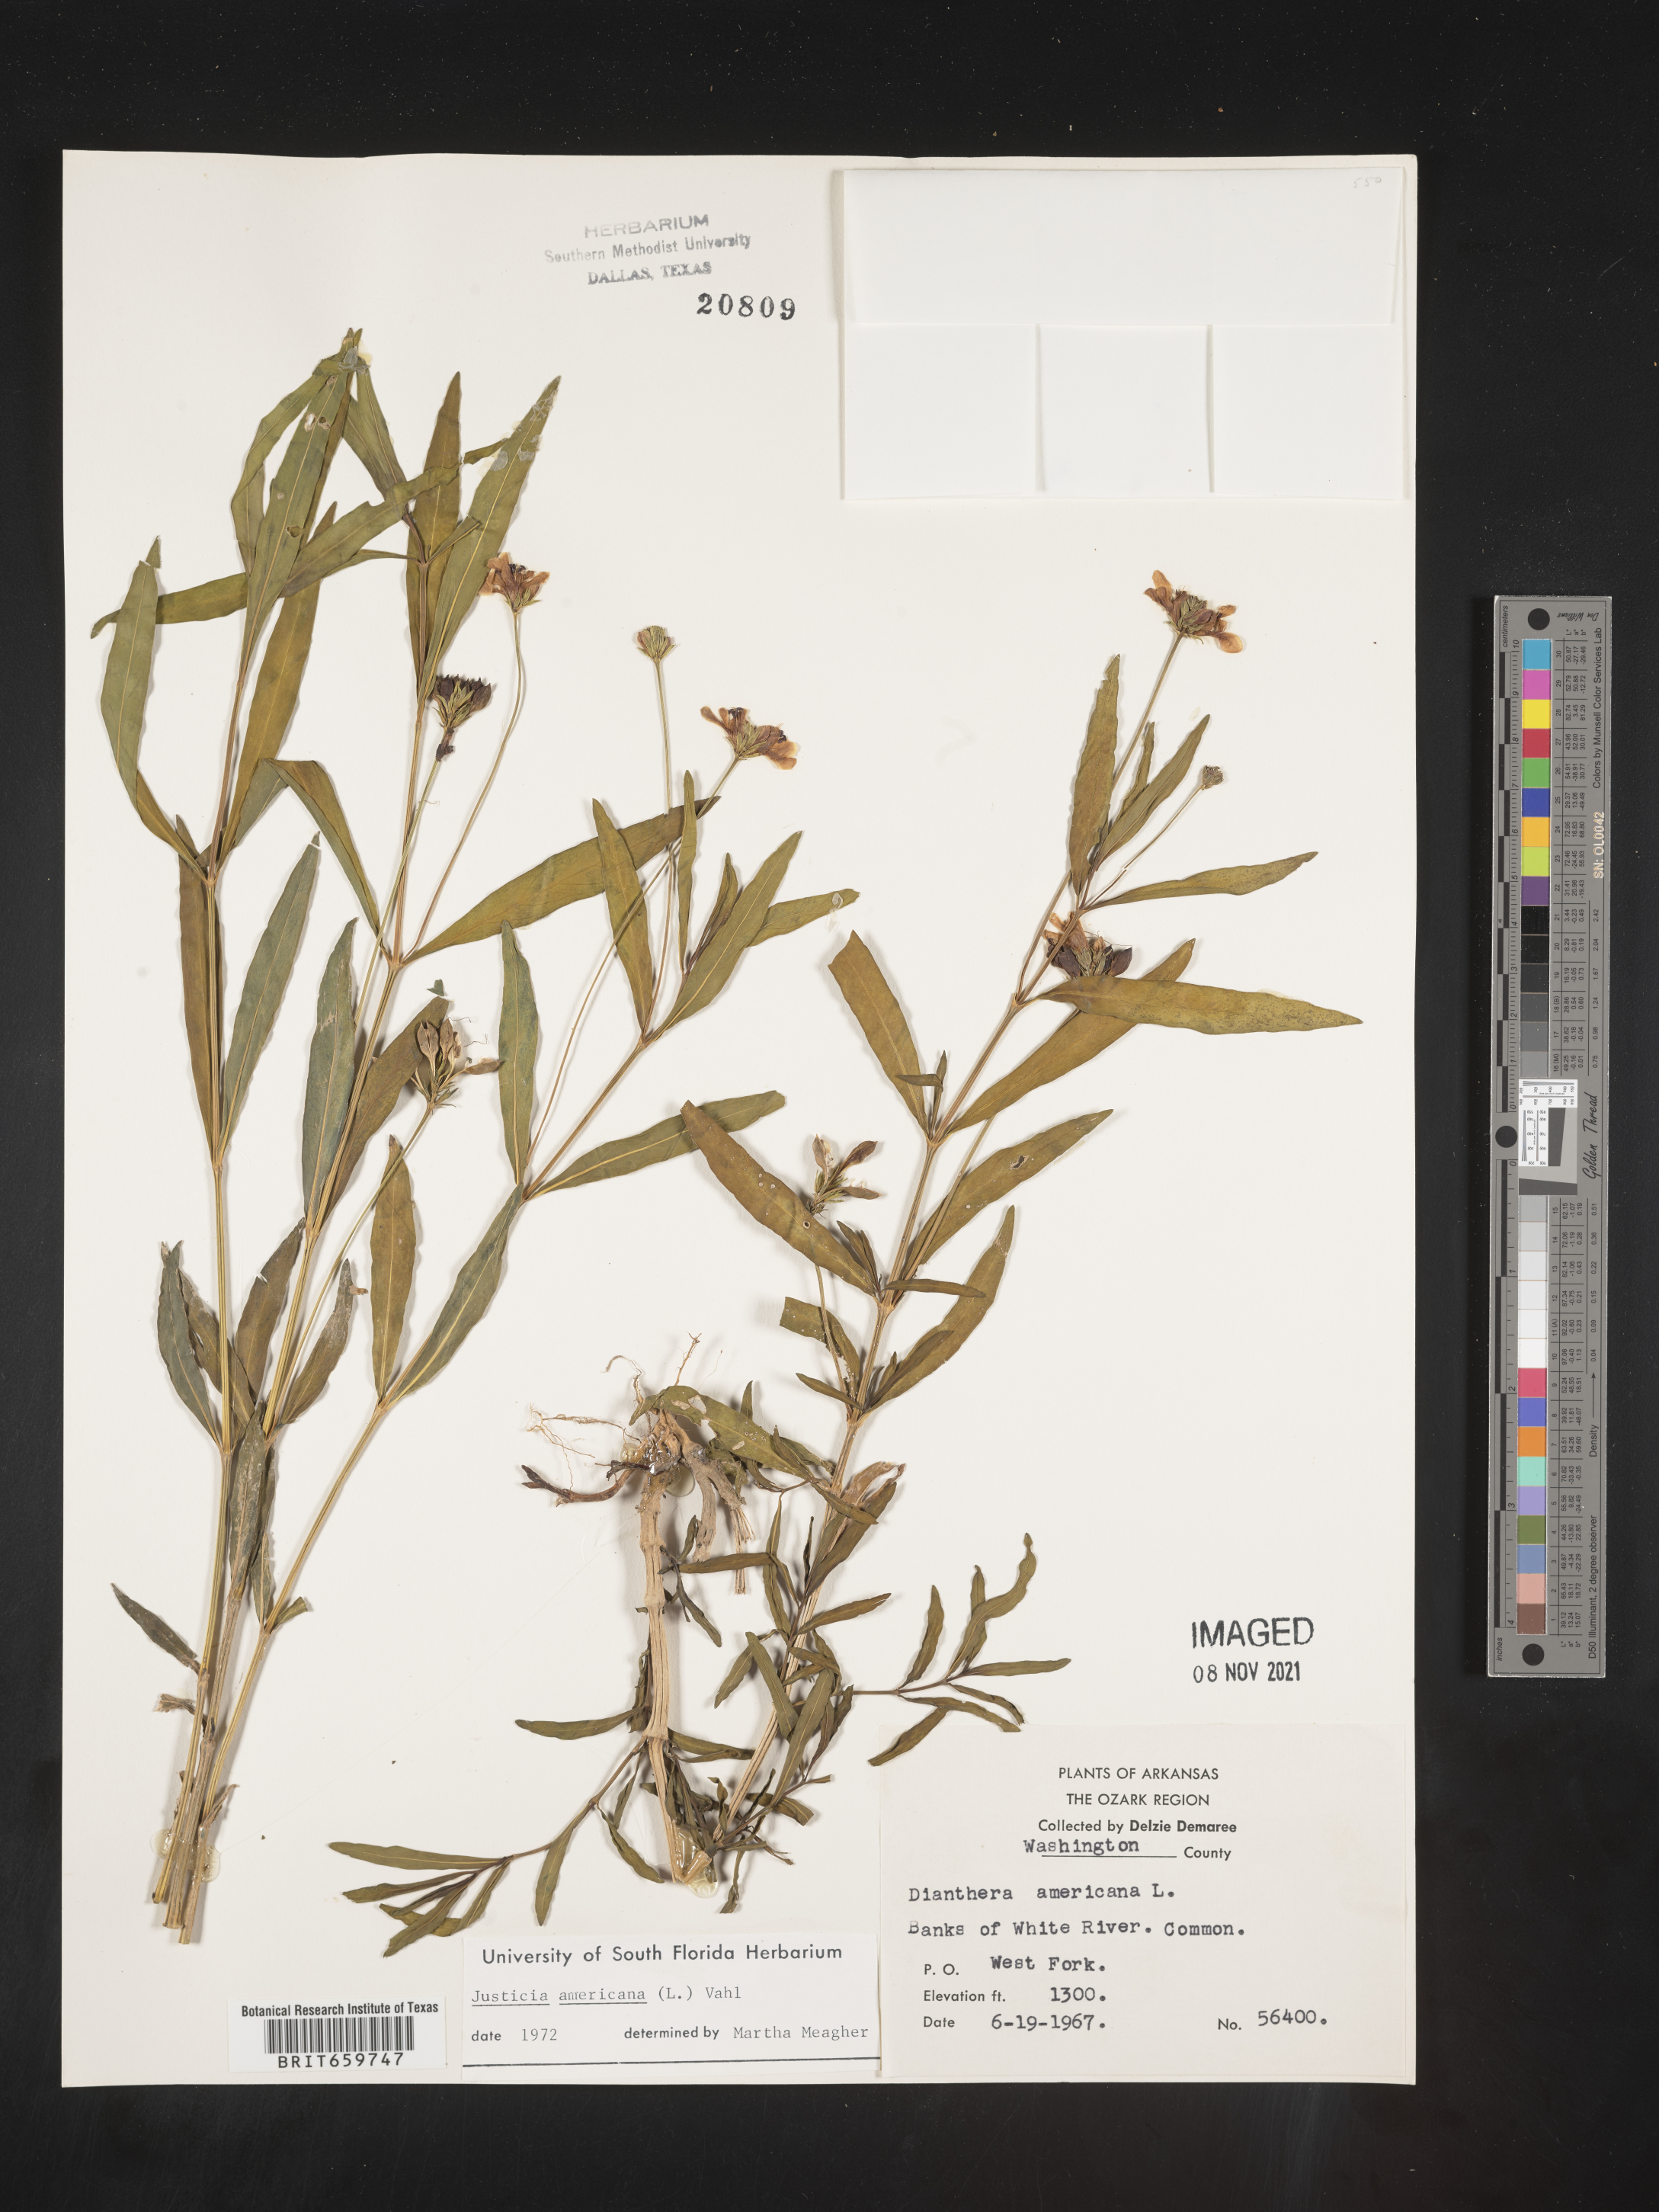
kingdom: Plantae
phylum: Tracheophyta
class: Magnoliopsida
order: Lamiales
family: Acanthaceae
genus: Dianthera
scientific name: Dianthera americana
